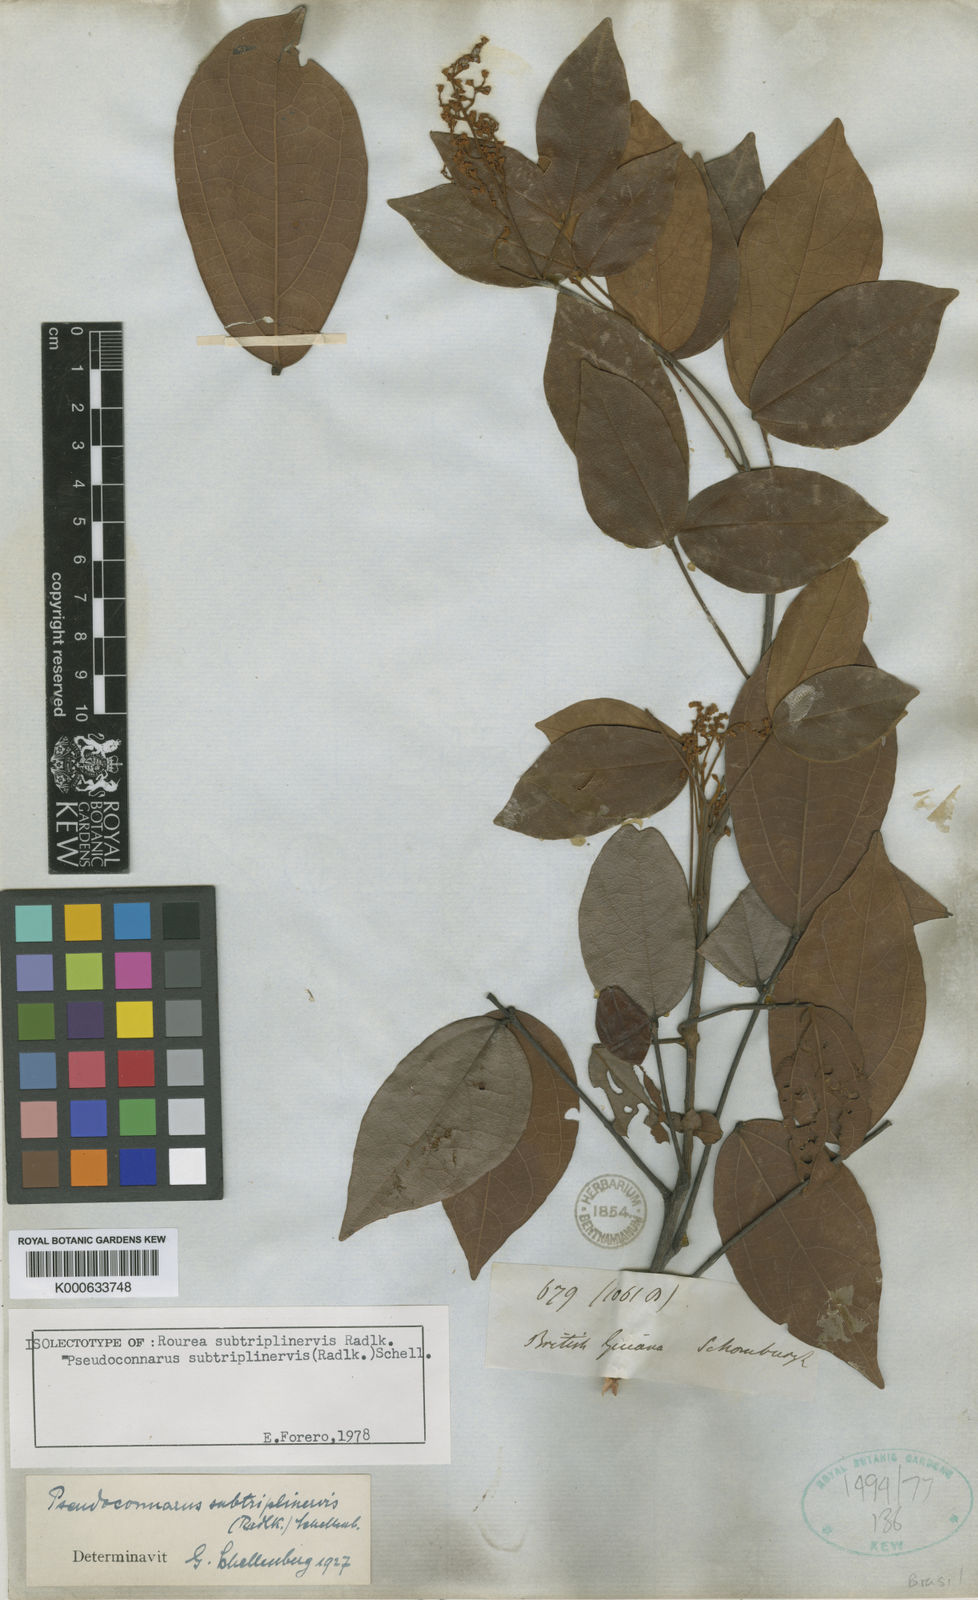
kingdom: Plantae
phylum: Tracheophyta
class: Magnoliopsida
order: Oxalidales
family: Connaraceae
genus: Pseudoconnarus
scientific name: Pseudoconnarus subtriplinervis
